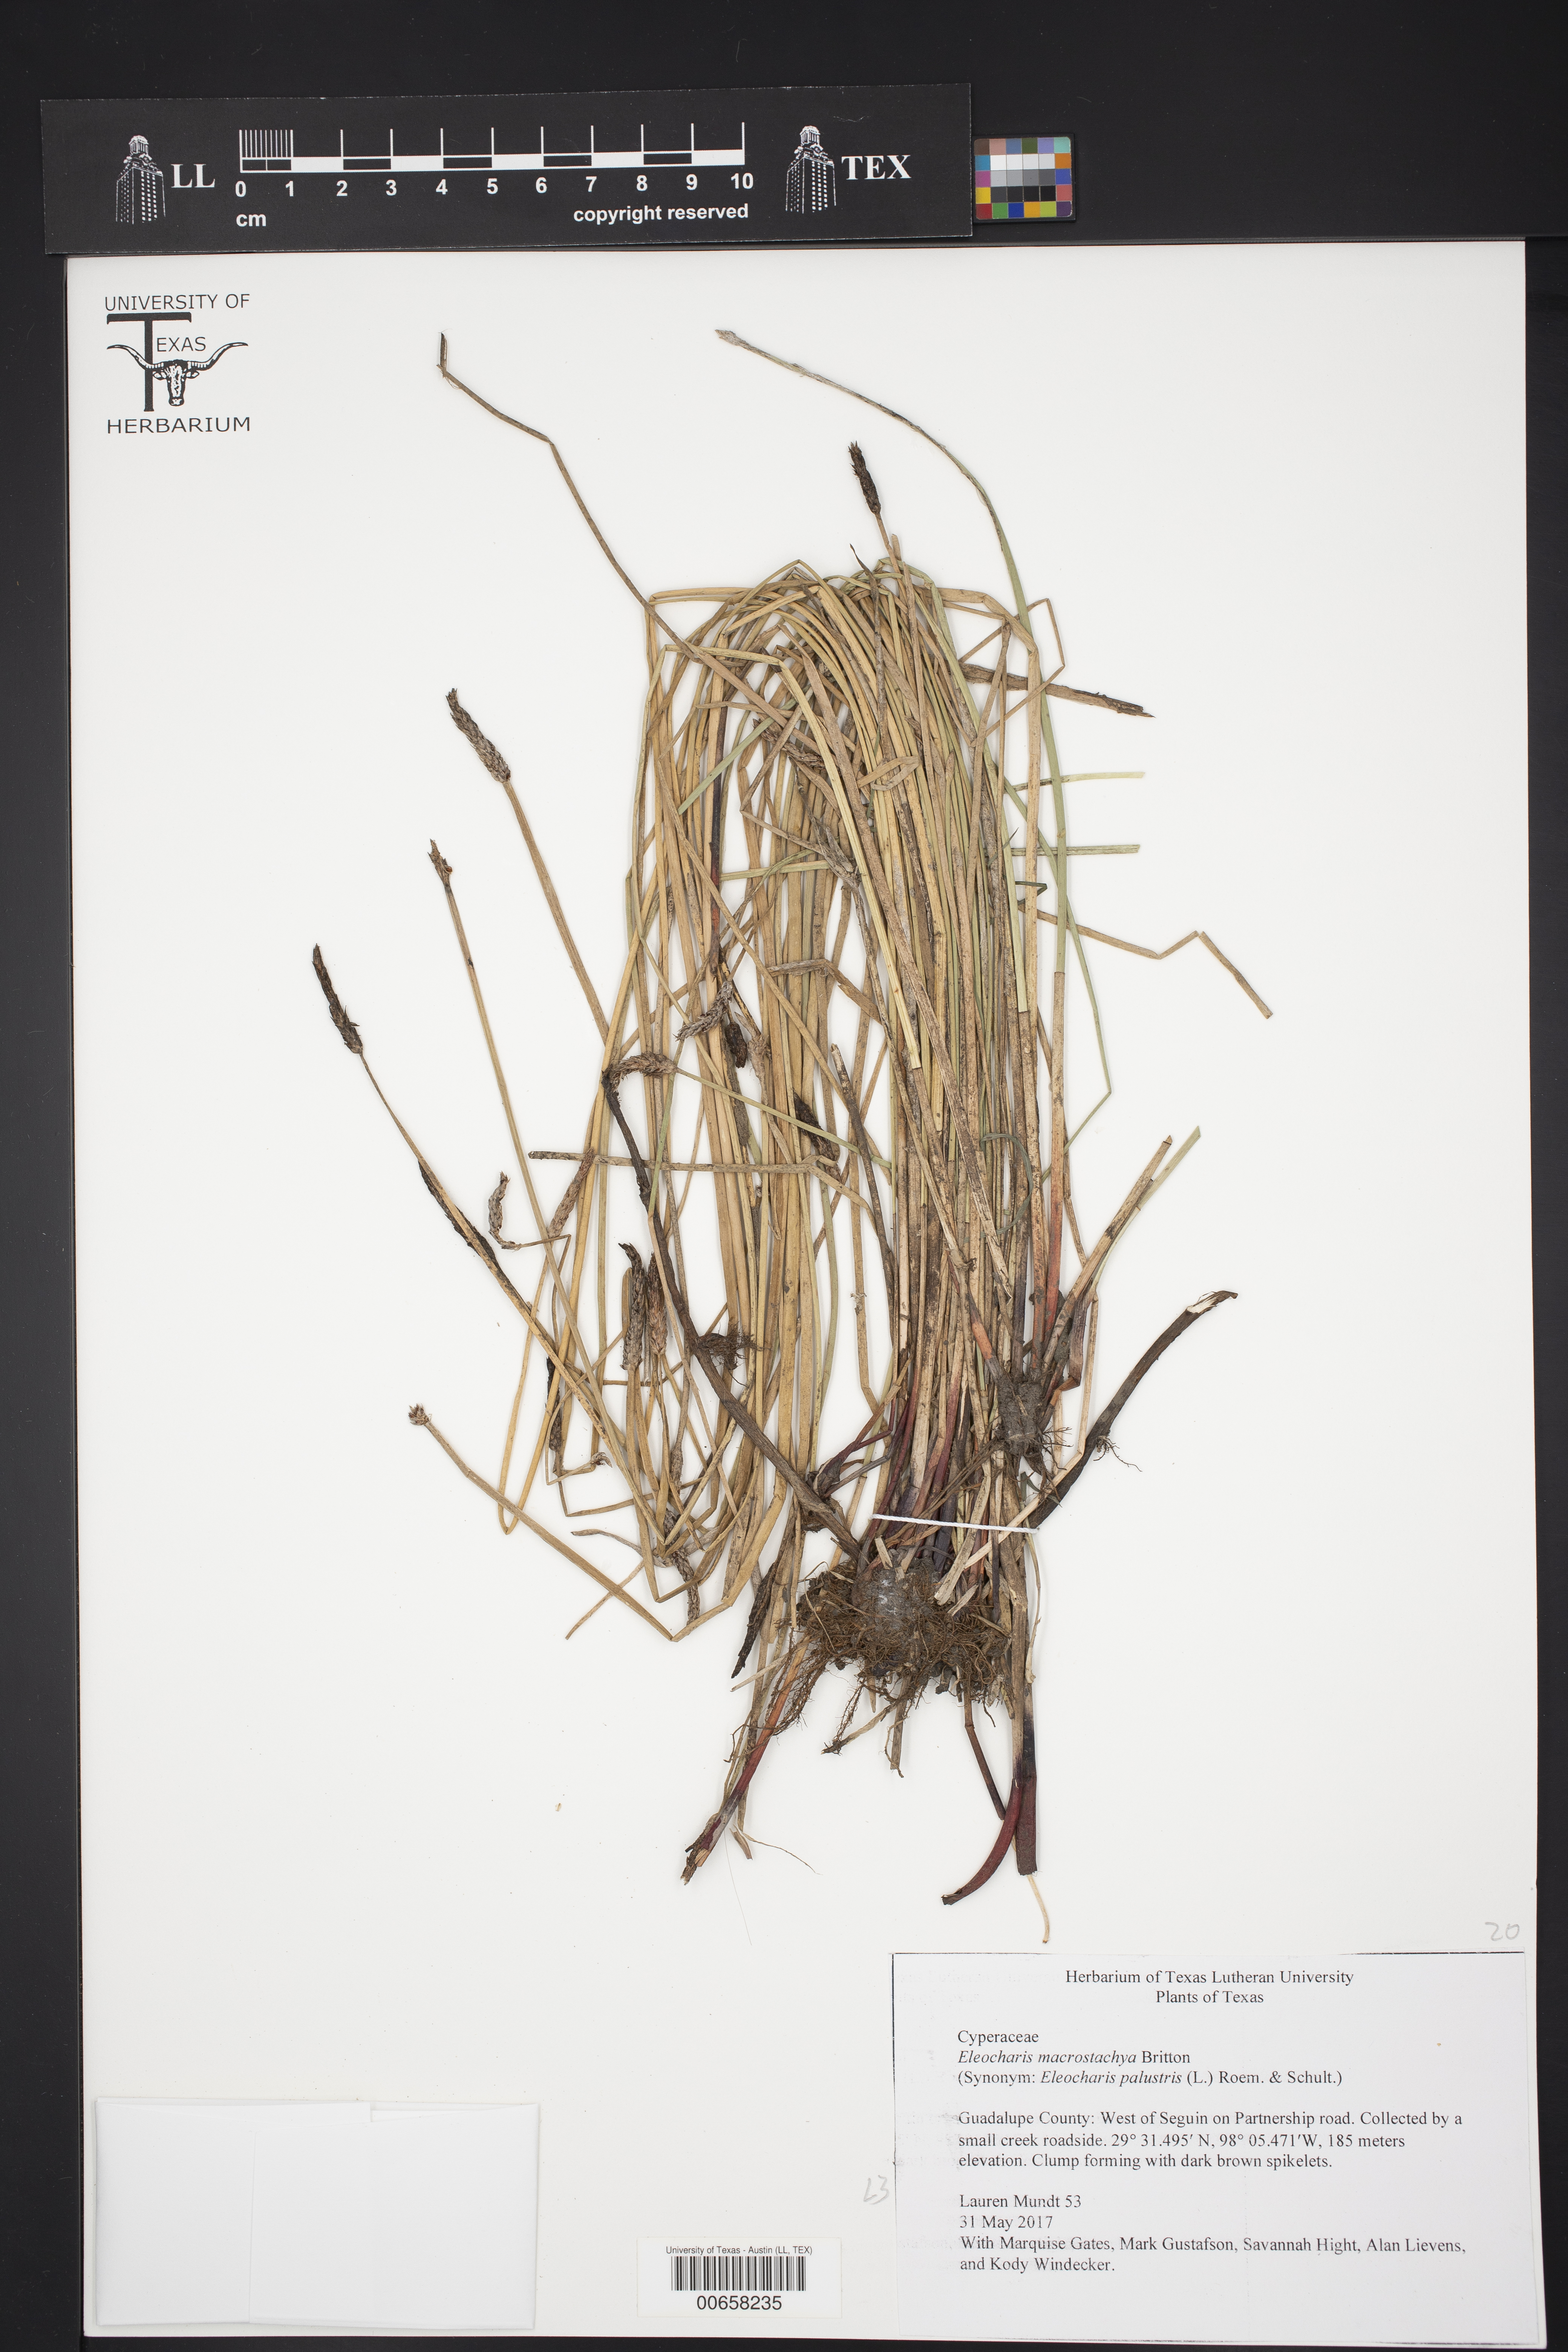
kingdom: Plantae
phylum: Tracheophyta
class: Liliopsida
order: Poales
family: Cyperaceae
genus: Eleocharis
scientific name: Eleocharis macrostachya
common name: Pale spikerush
